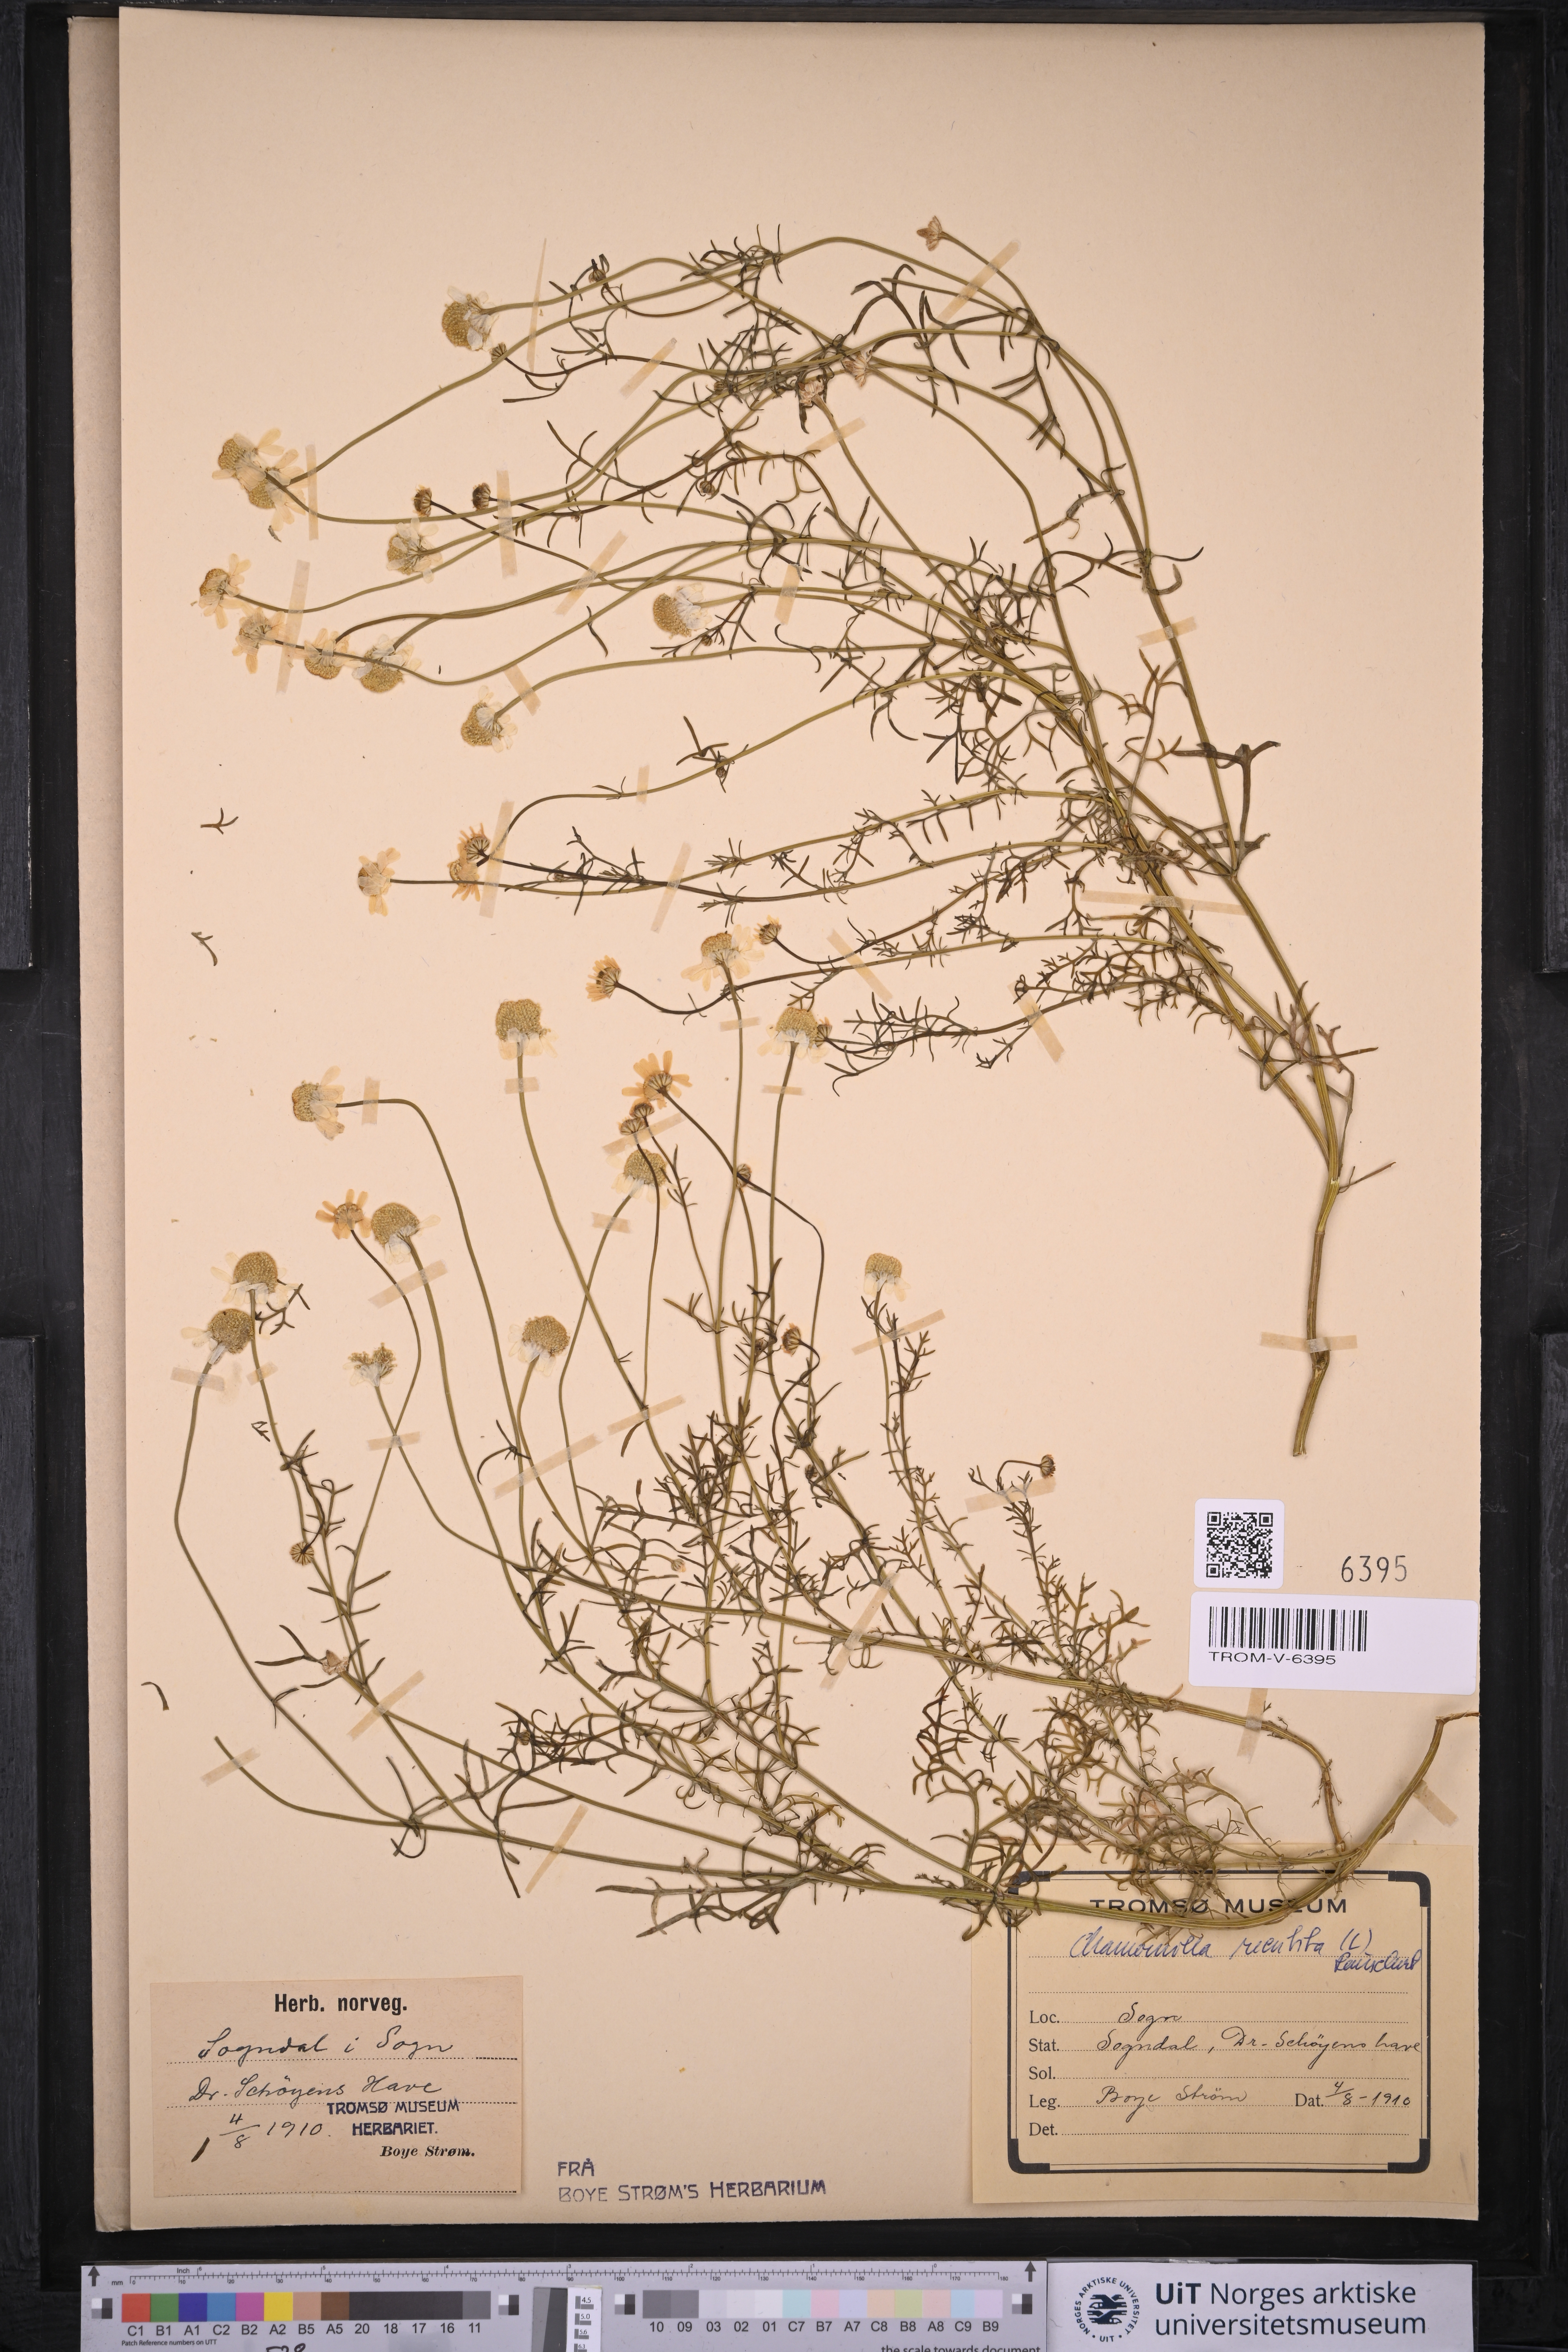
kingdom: Plantae
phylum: Tracheophyta
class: Magnoliopsida
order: Asterales
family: Asteraceae
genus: Matricaria
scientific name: Matricaria chamomilla
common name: Scented mayweed
